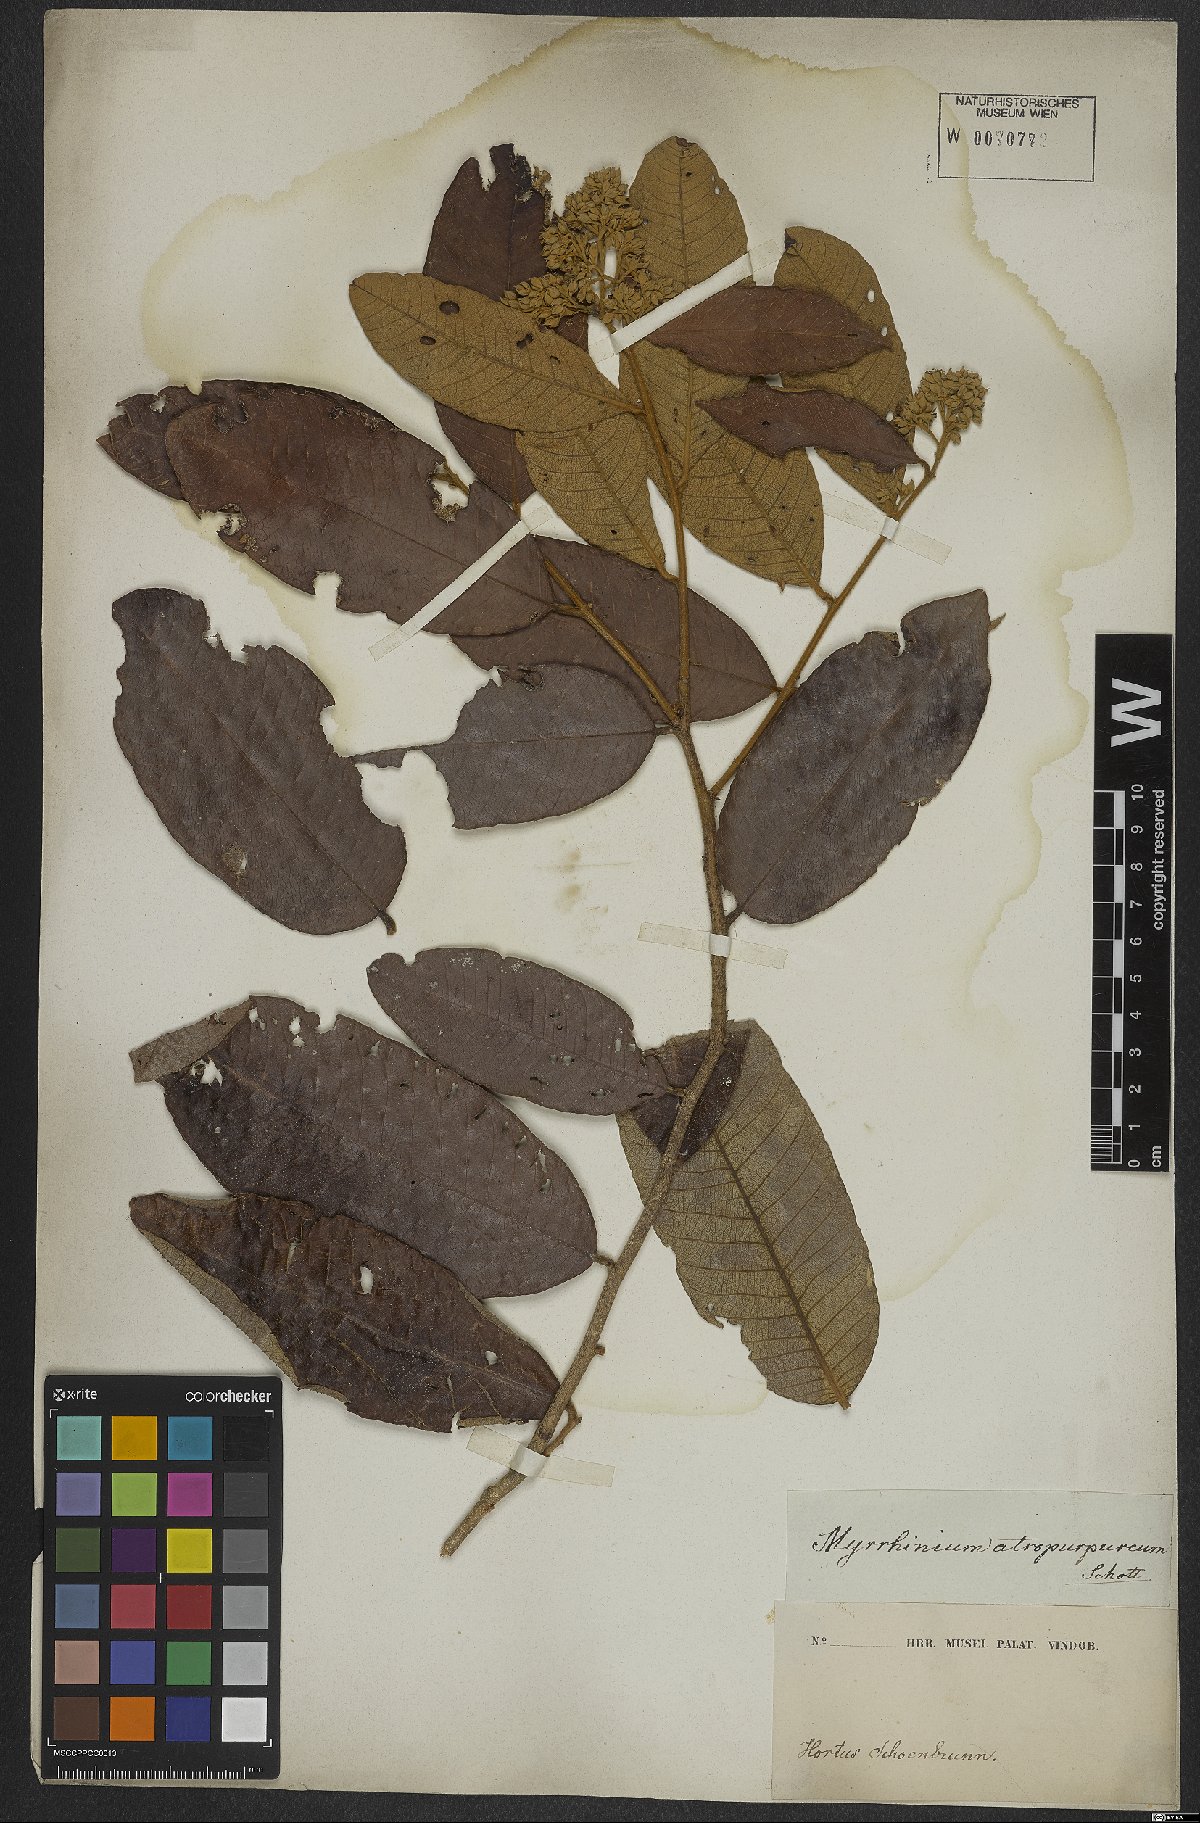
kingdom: Plantae
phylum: Tracheophyta
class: Magnoliopsida
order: Myrtales
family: Myrtaceae
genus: Myrrhinium
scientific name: Myrrhinium atropurpureum
